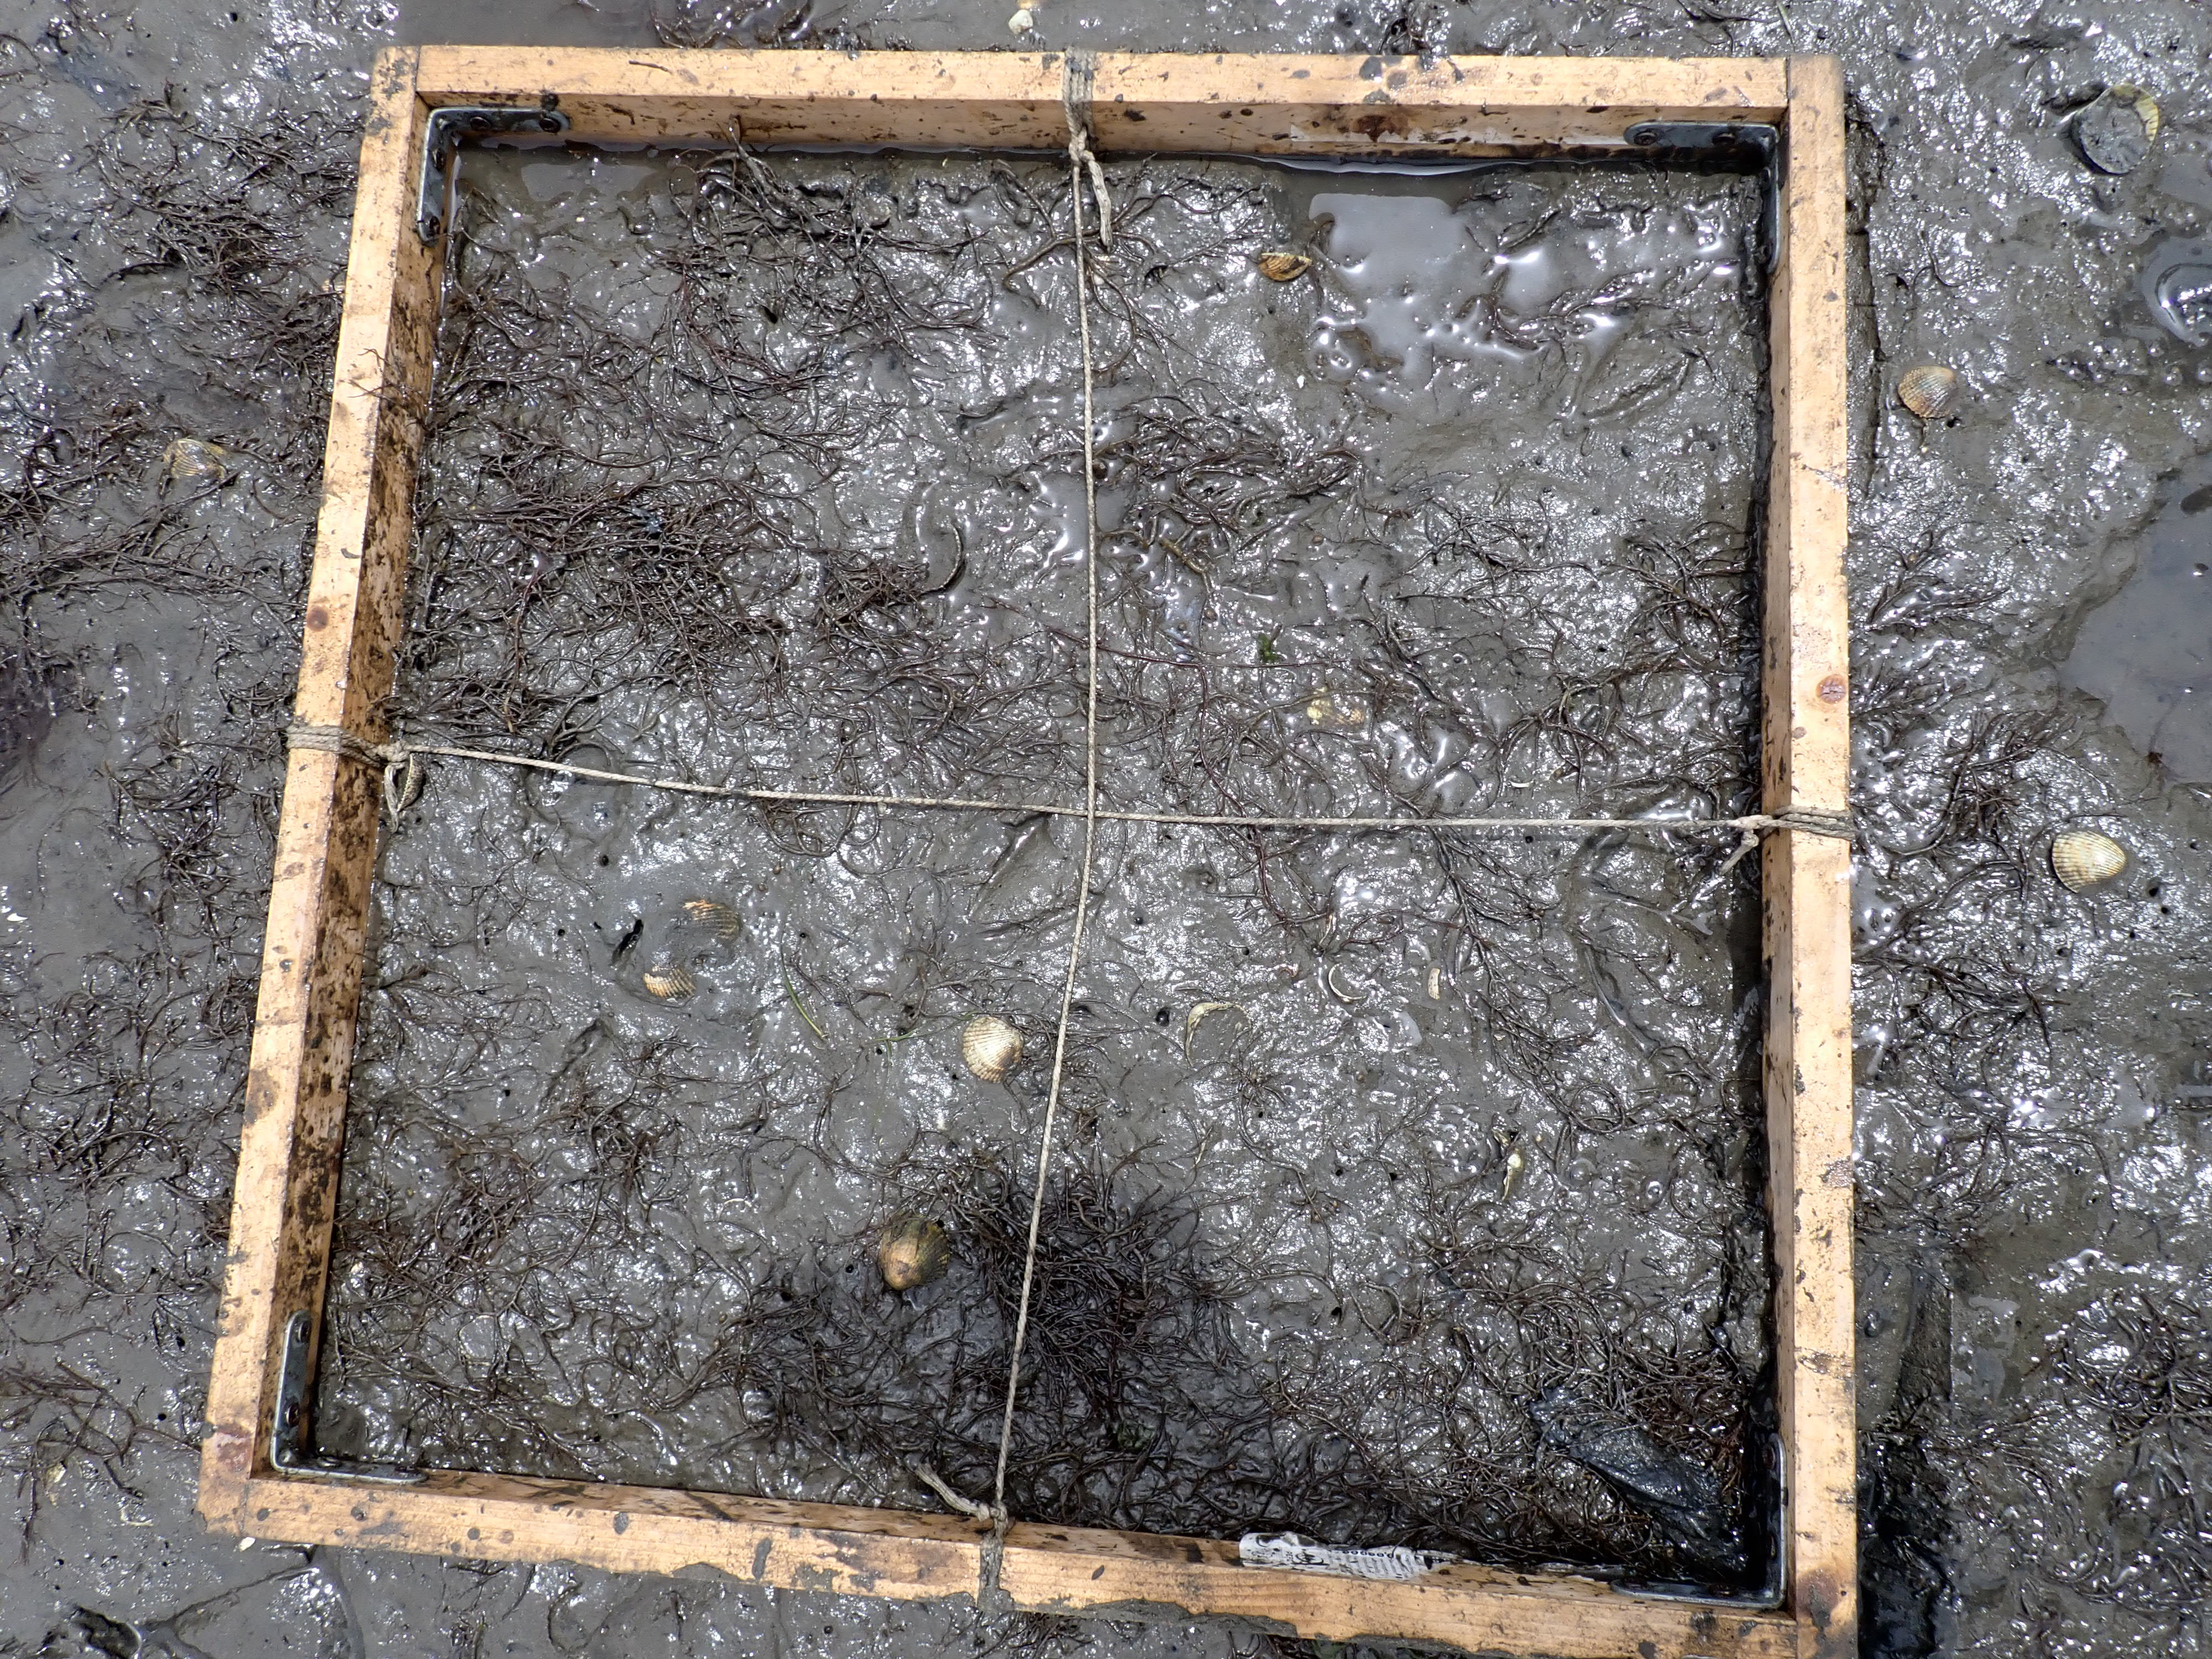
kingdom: Plantae
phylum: Rhodophyta
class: Florideophyceae
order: Gracilariales
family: Gracilariaceae
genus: Gracilaria
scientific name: Gracilaria vermiculophylla
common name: Algae
